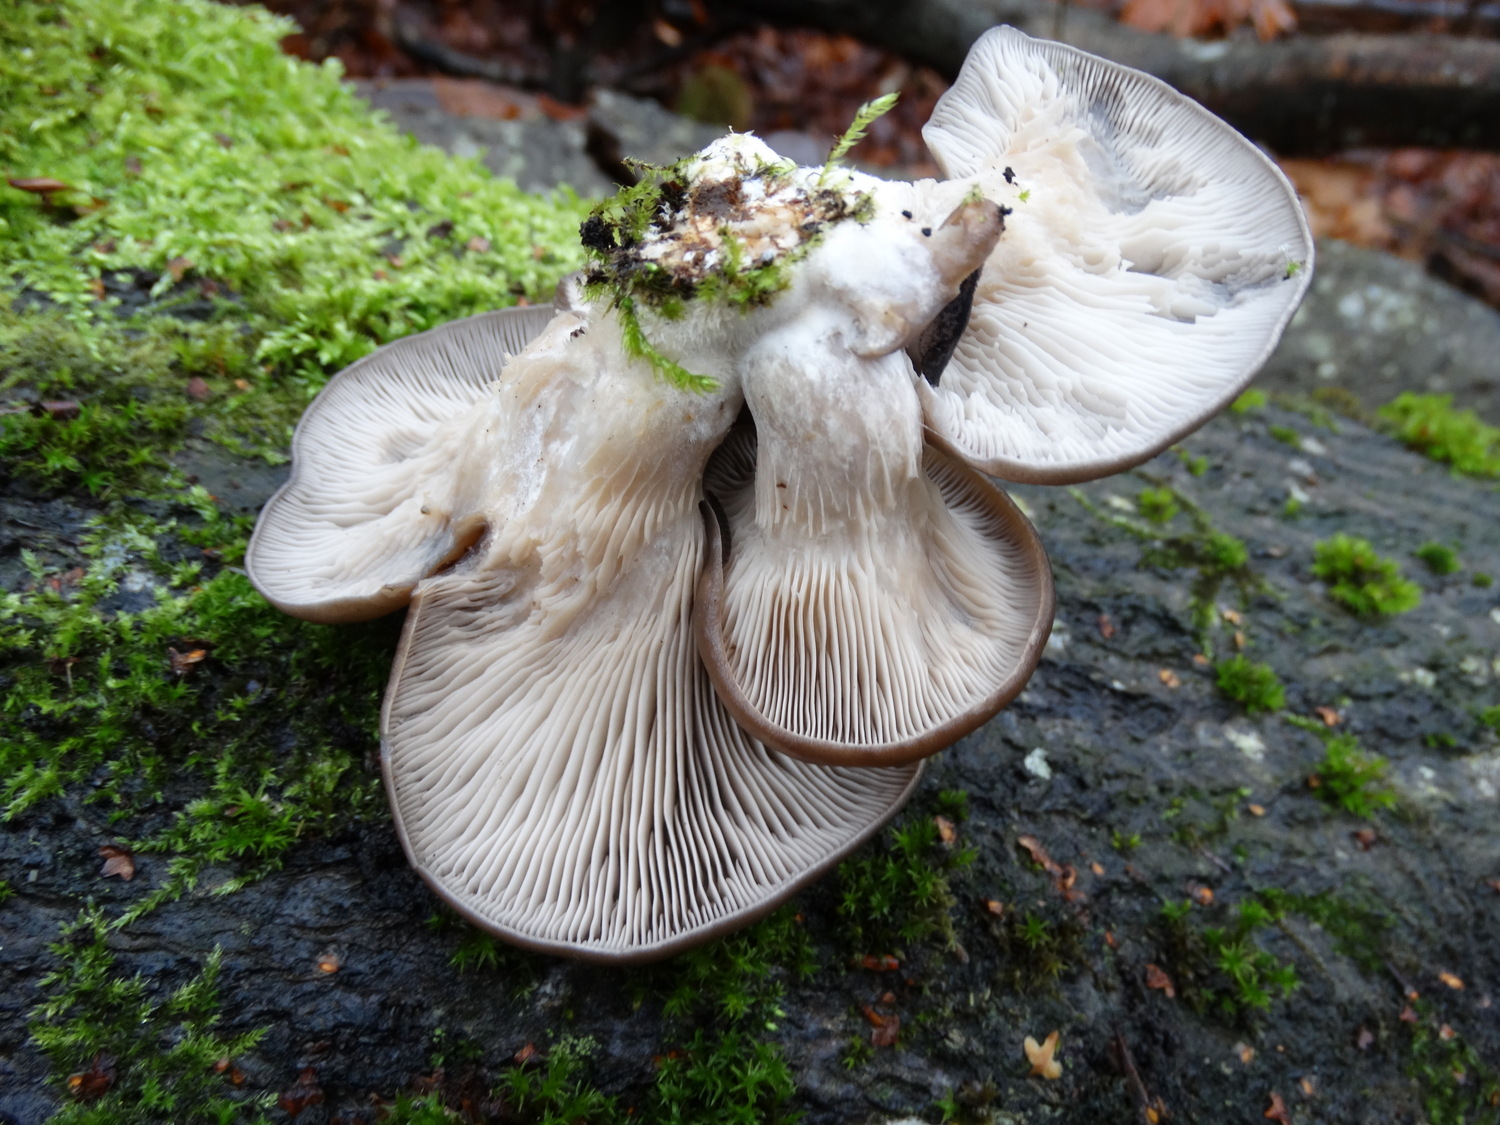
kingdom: Fungi
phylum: Basidiomycota
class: Agaricomycetes
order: Agaricales
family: Pleurotaceae
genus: Pleurotus
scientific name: Pleurotus ostreatus
